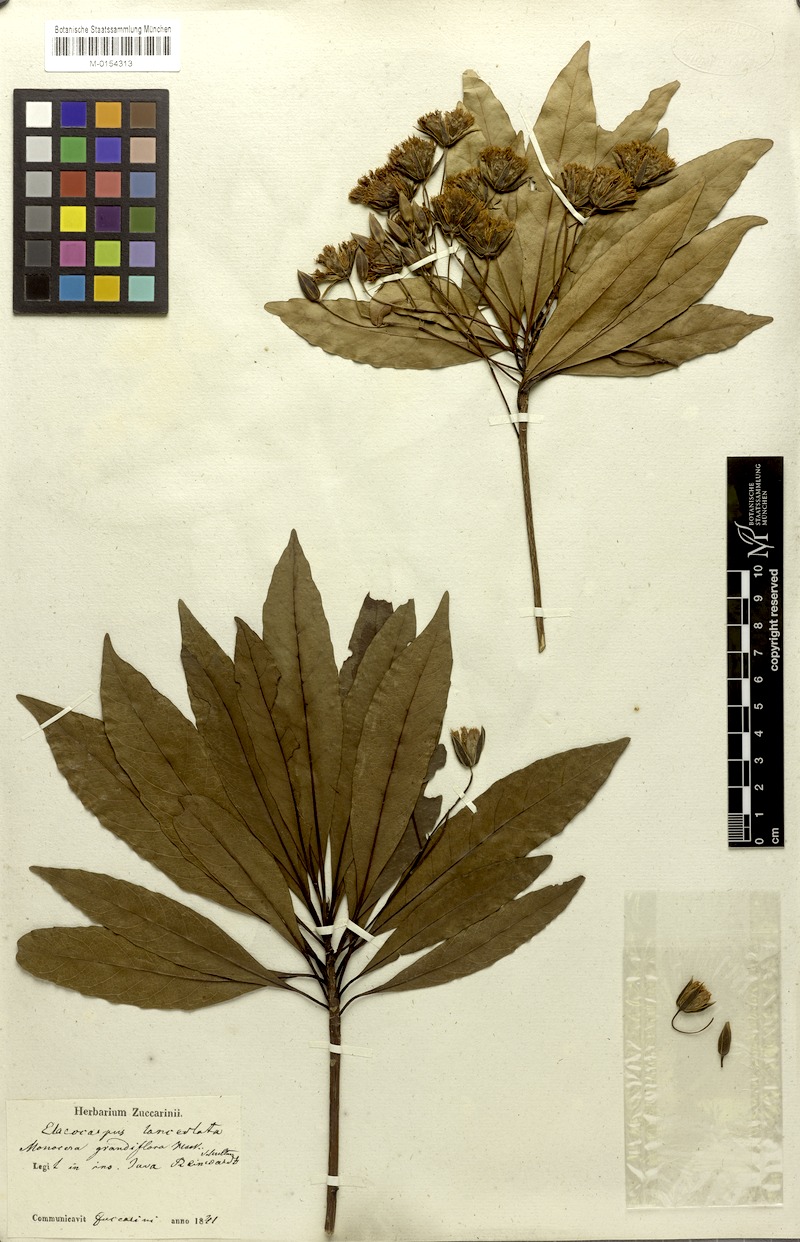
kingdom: Plantae
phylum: Tracheophyta
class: Magnoliopsida
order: Oxalidales
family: Elaeocarpaceae
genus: Elaeocarpus
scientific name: Elaeocarpus grandiflorus
